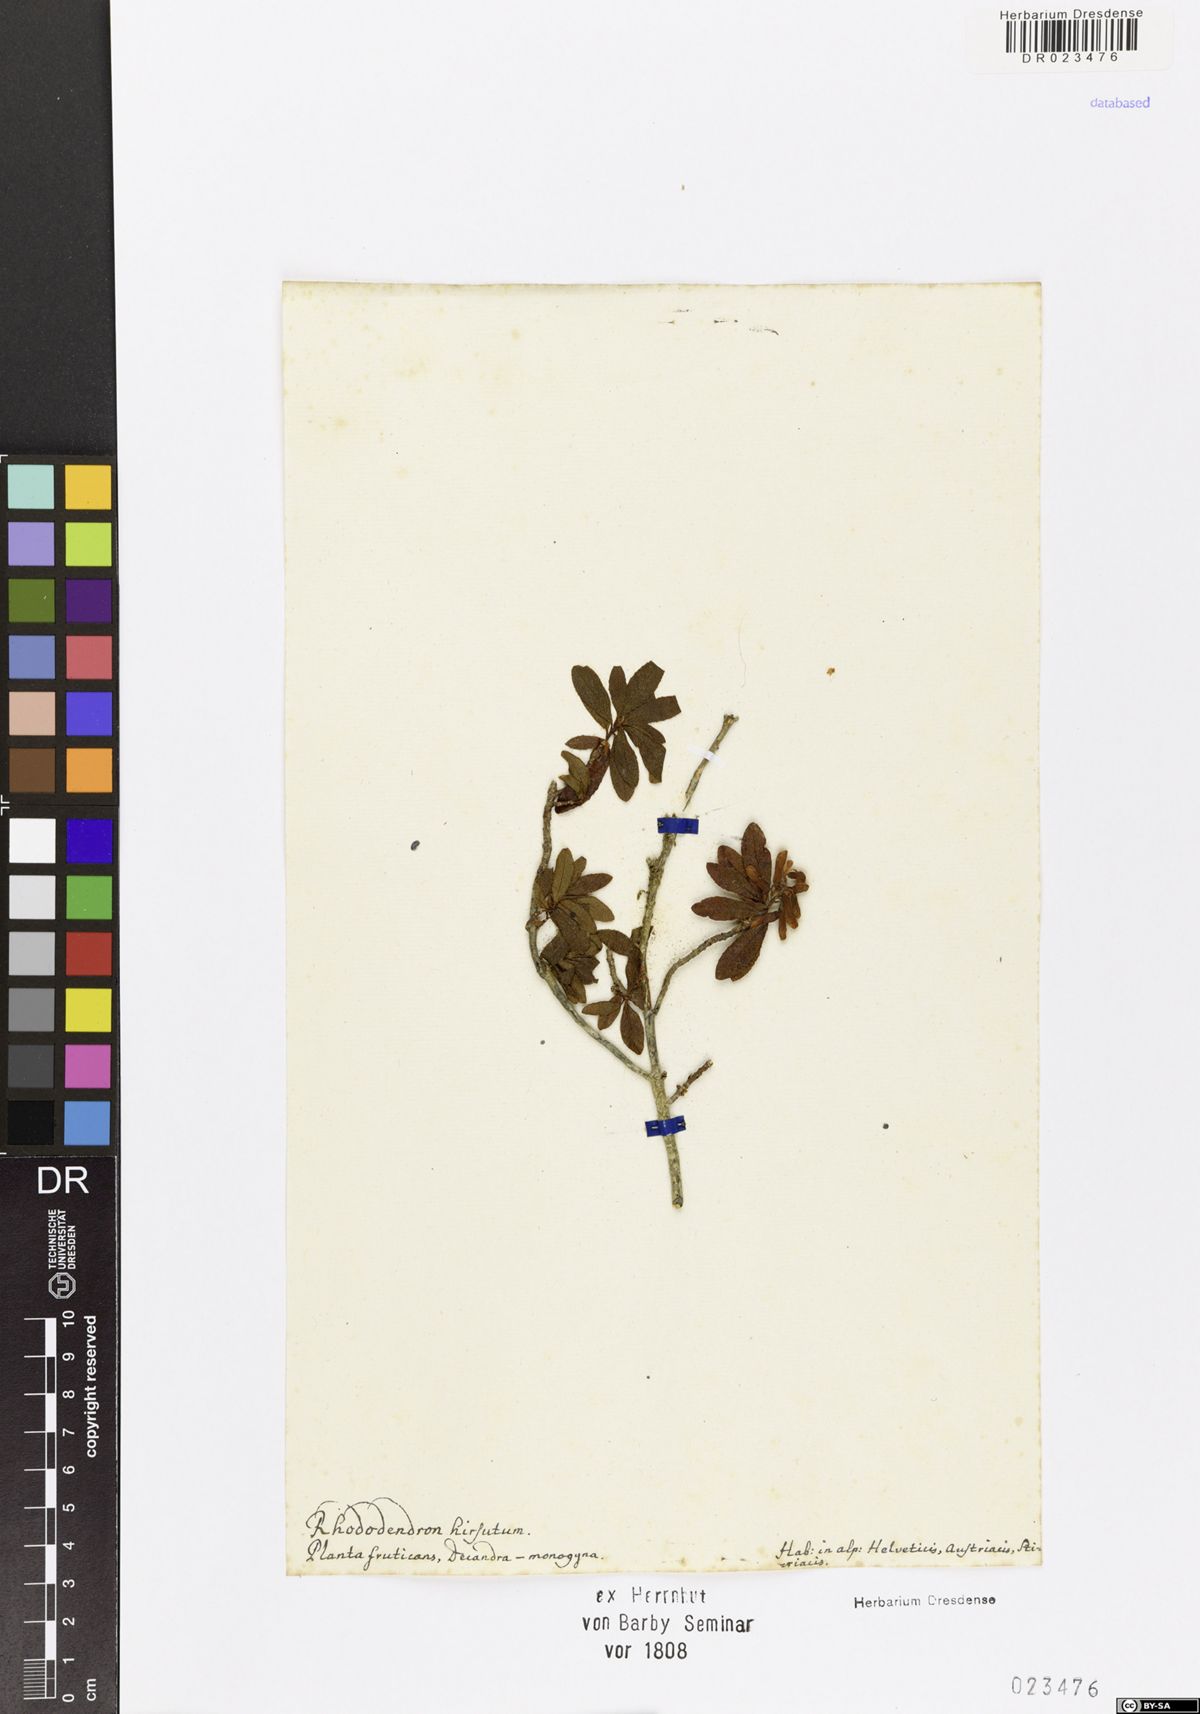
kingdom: Plantae
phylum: Tracheophyta
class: Magnoliopsida
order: Ericales
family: Ericaceae
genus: Rhododendron
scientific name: Rhododendron hirsutum
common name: Hairy alpenrose
